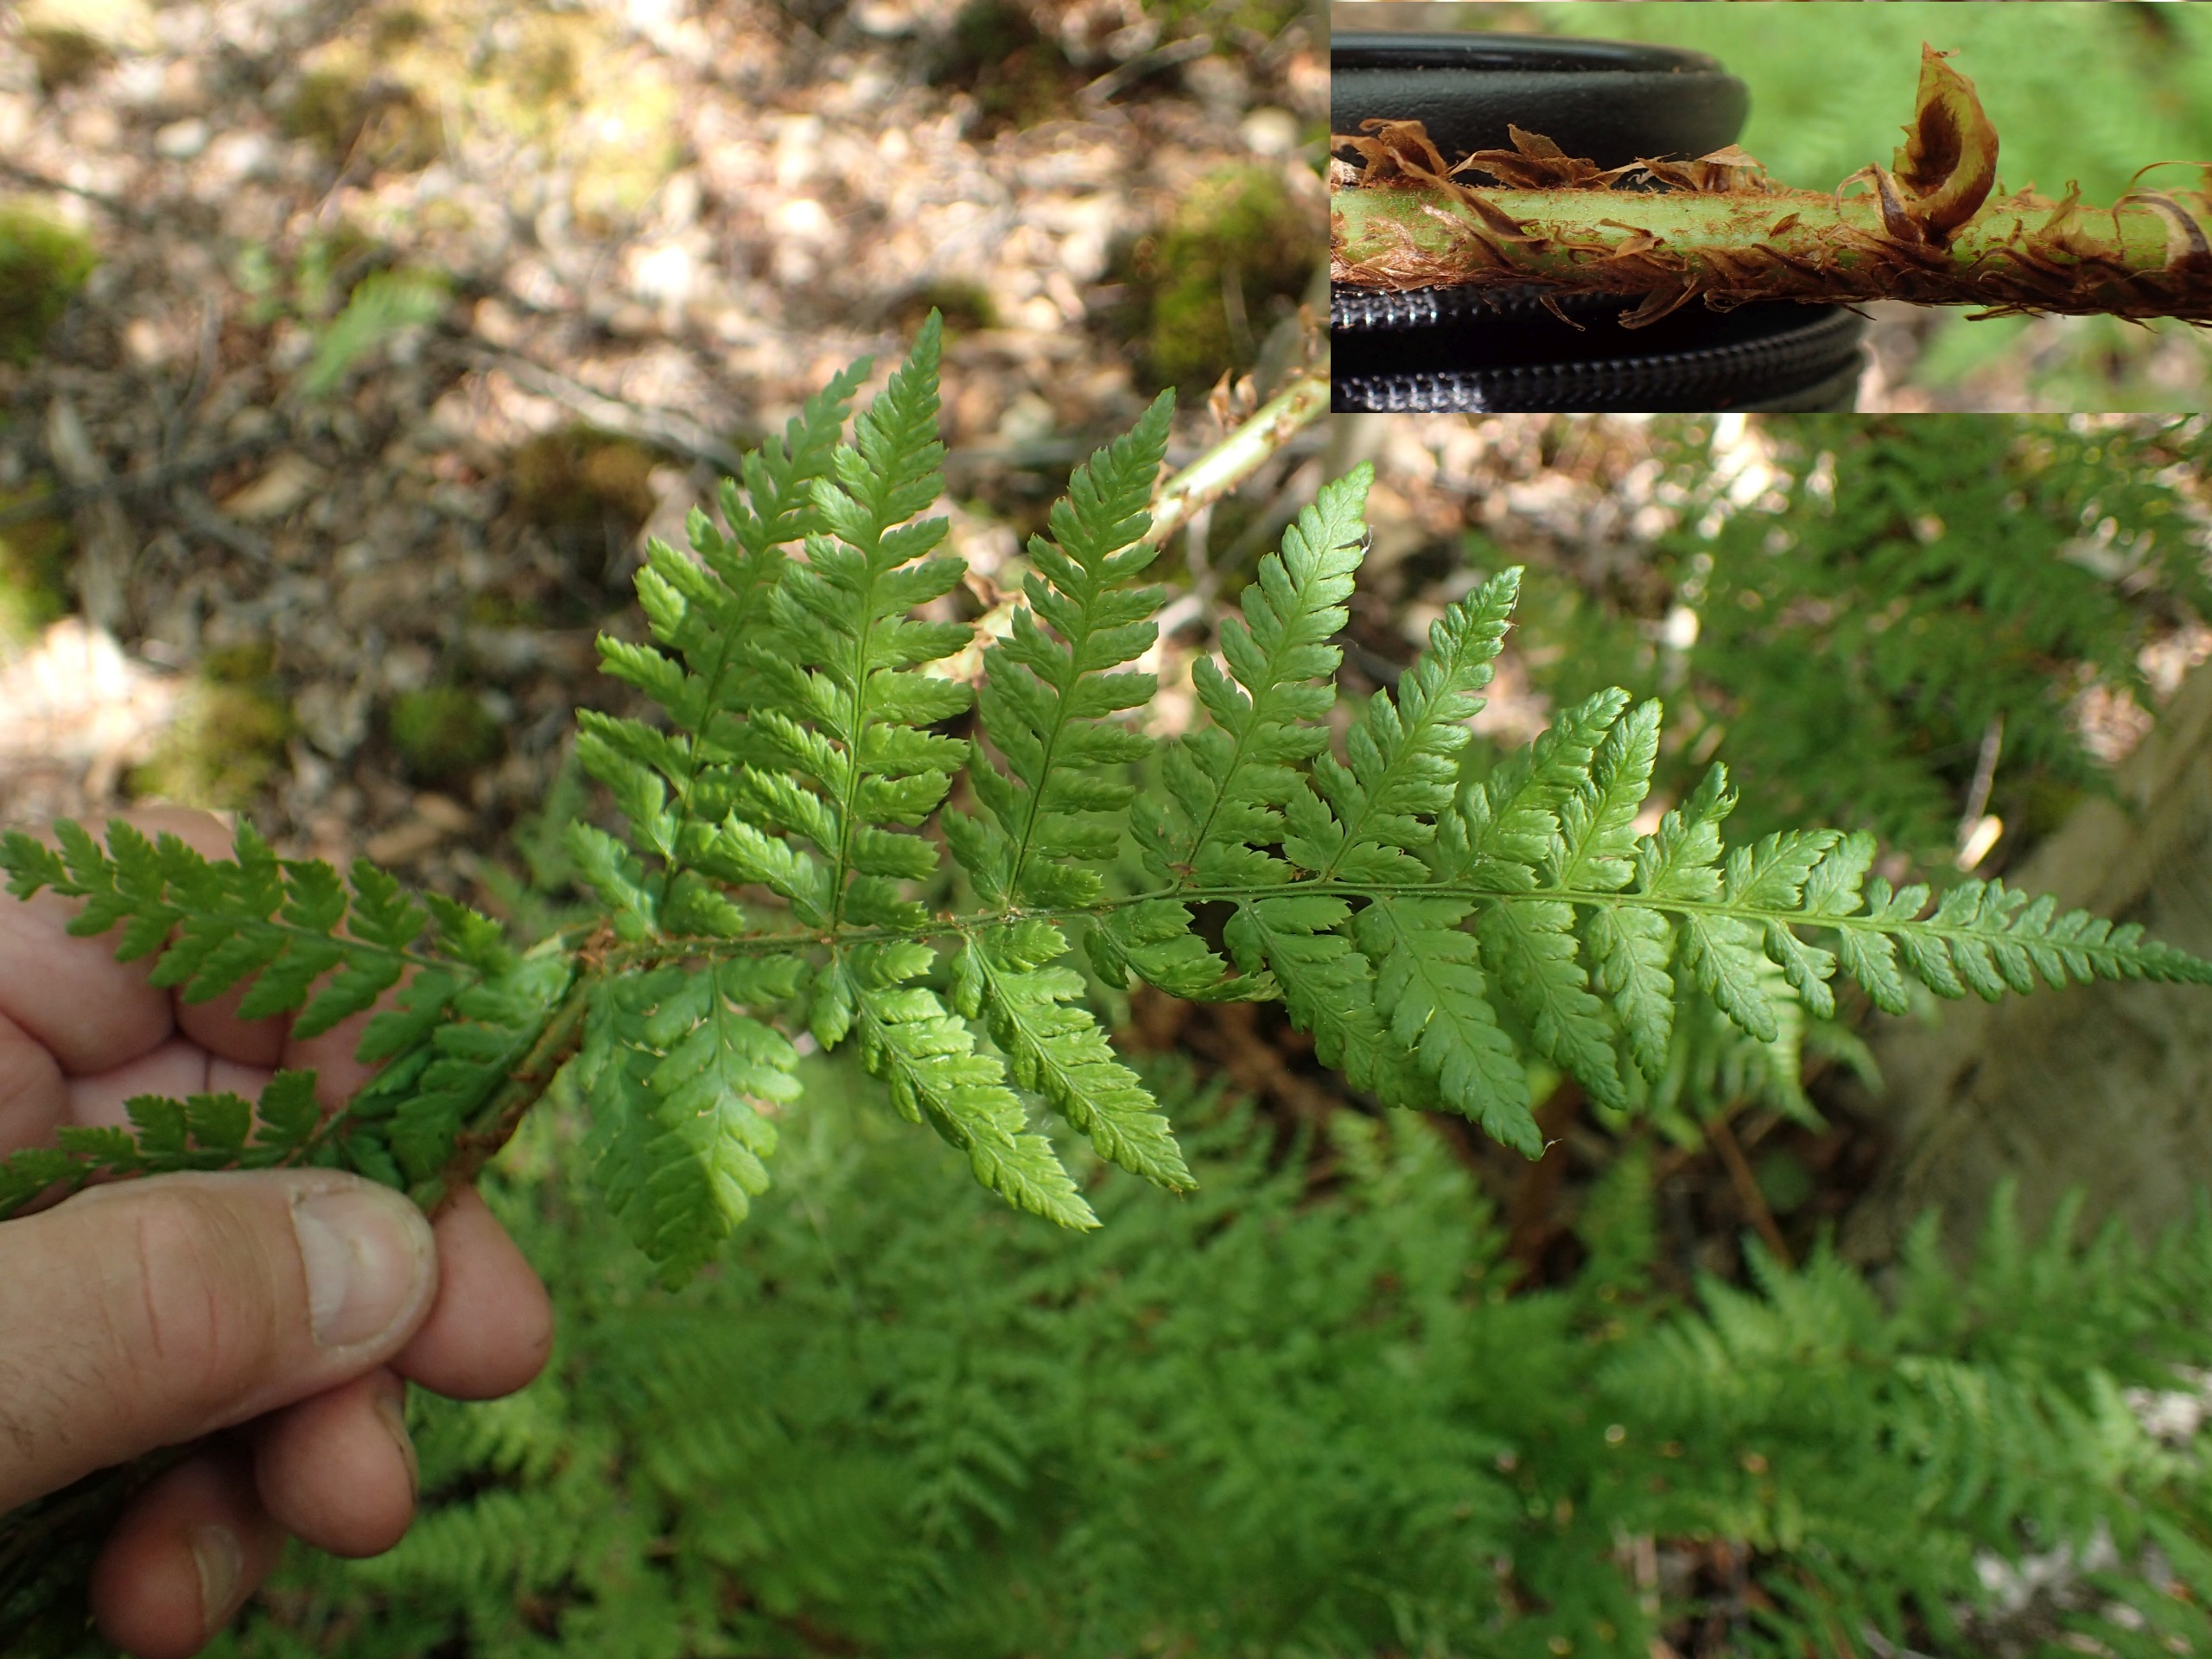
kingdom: Plantae
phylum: Tracheophyta
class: Polypodiopsida
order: Polypodiales
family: Dryopteridaceae
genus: Dryopteris
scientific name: Dryopteris dilatata
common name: Bredbladet mangeløv
